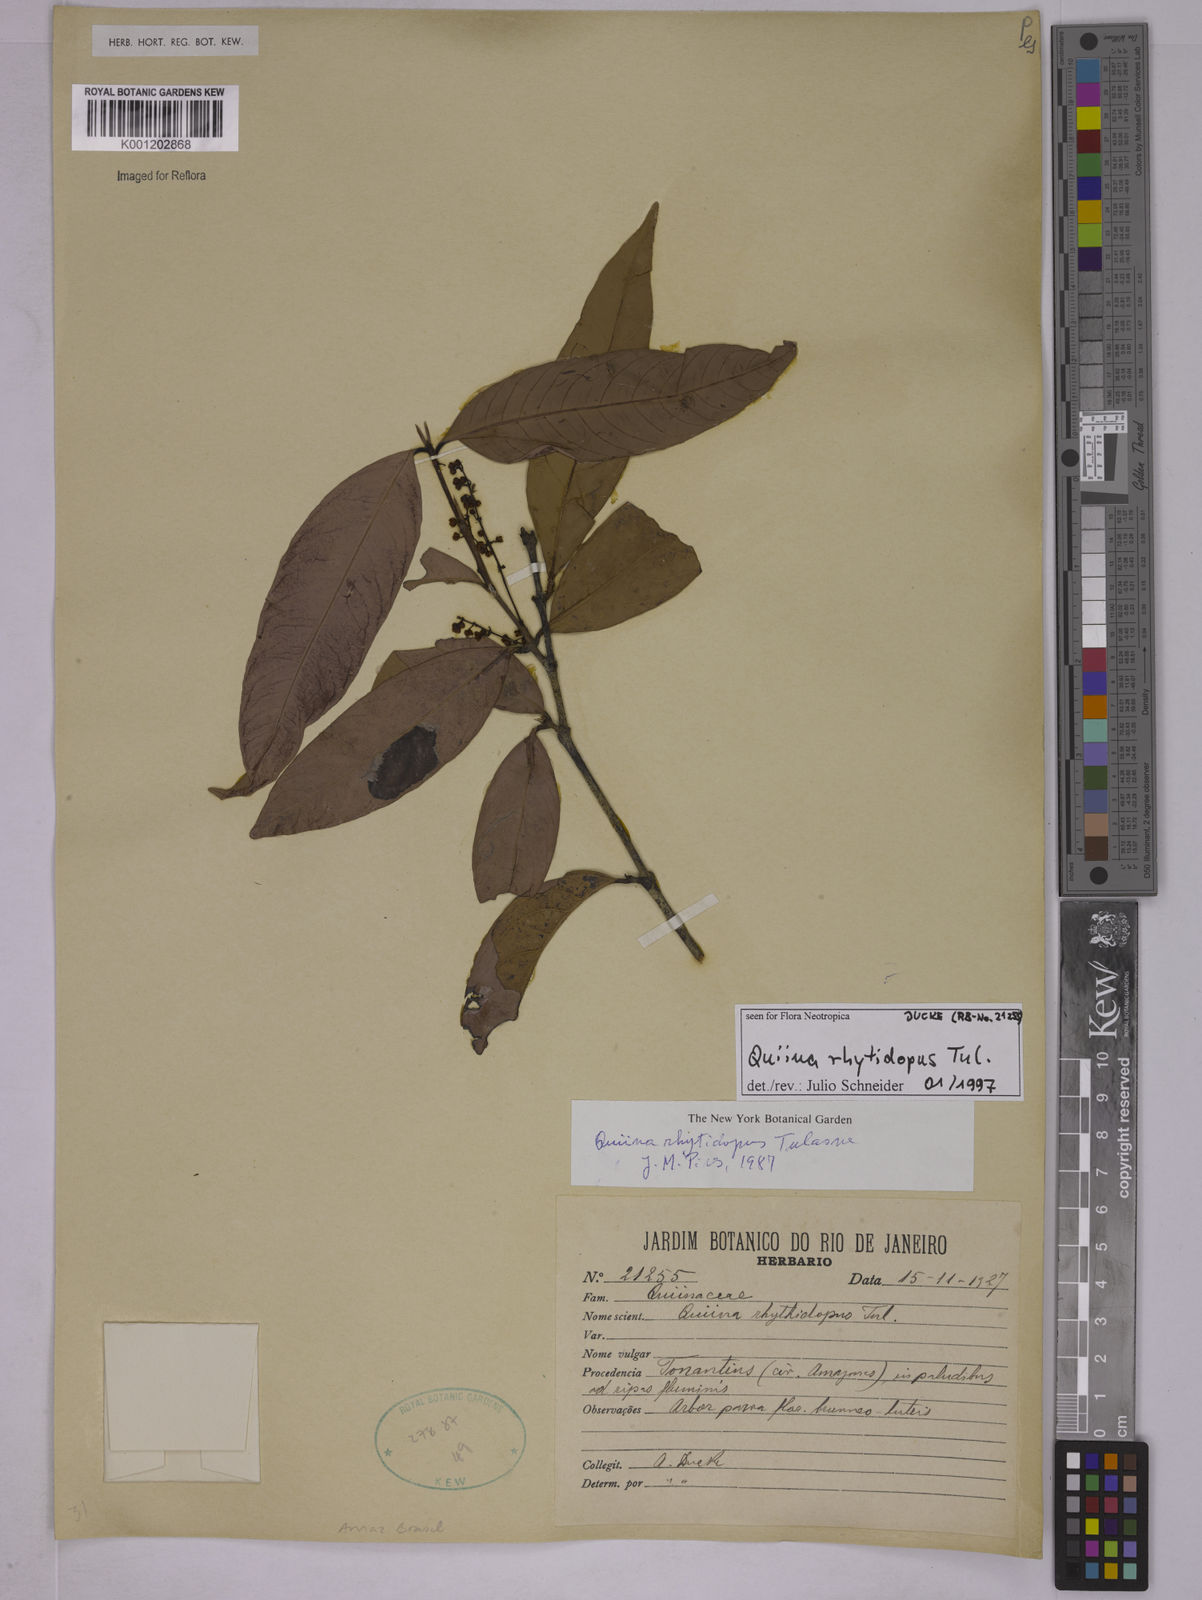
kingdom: Plantae
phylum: Tracheophyta
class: Magnoliopsida
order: Malpighiales
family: Quiinaceae
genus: Quiina
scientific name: Quiina rhytidopus
